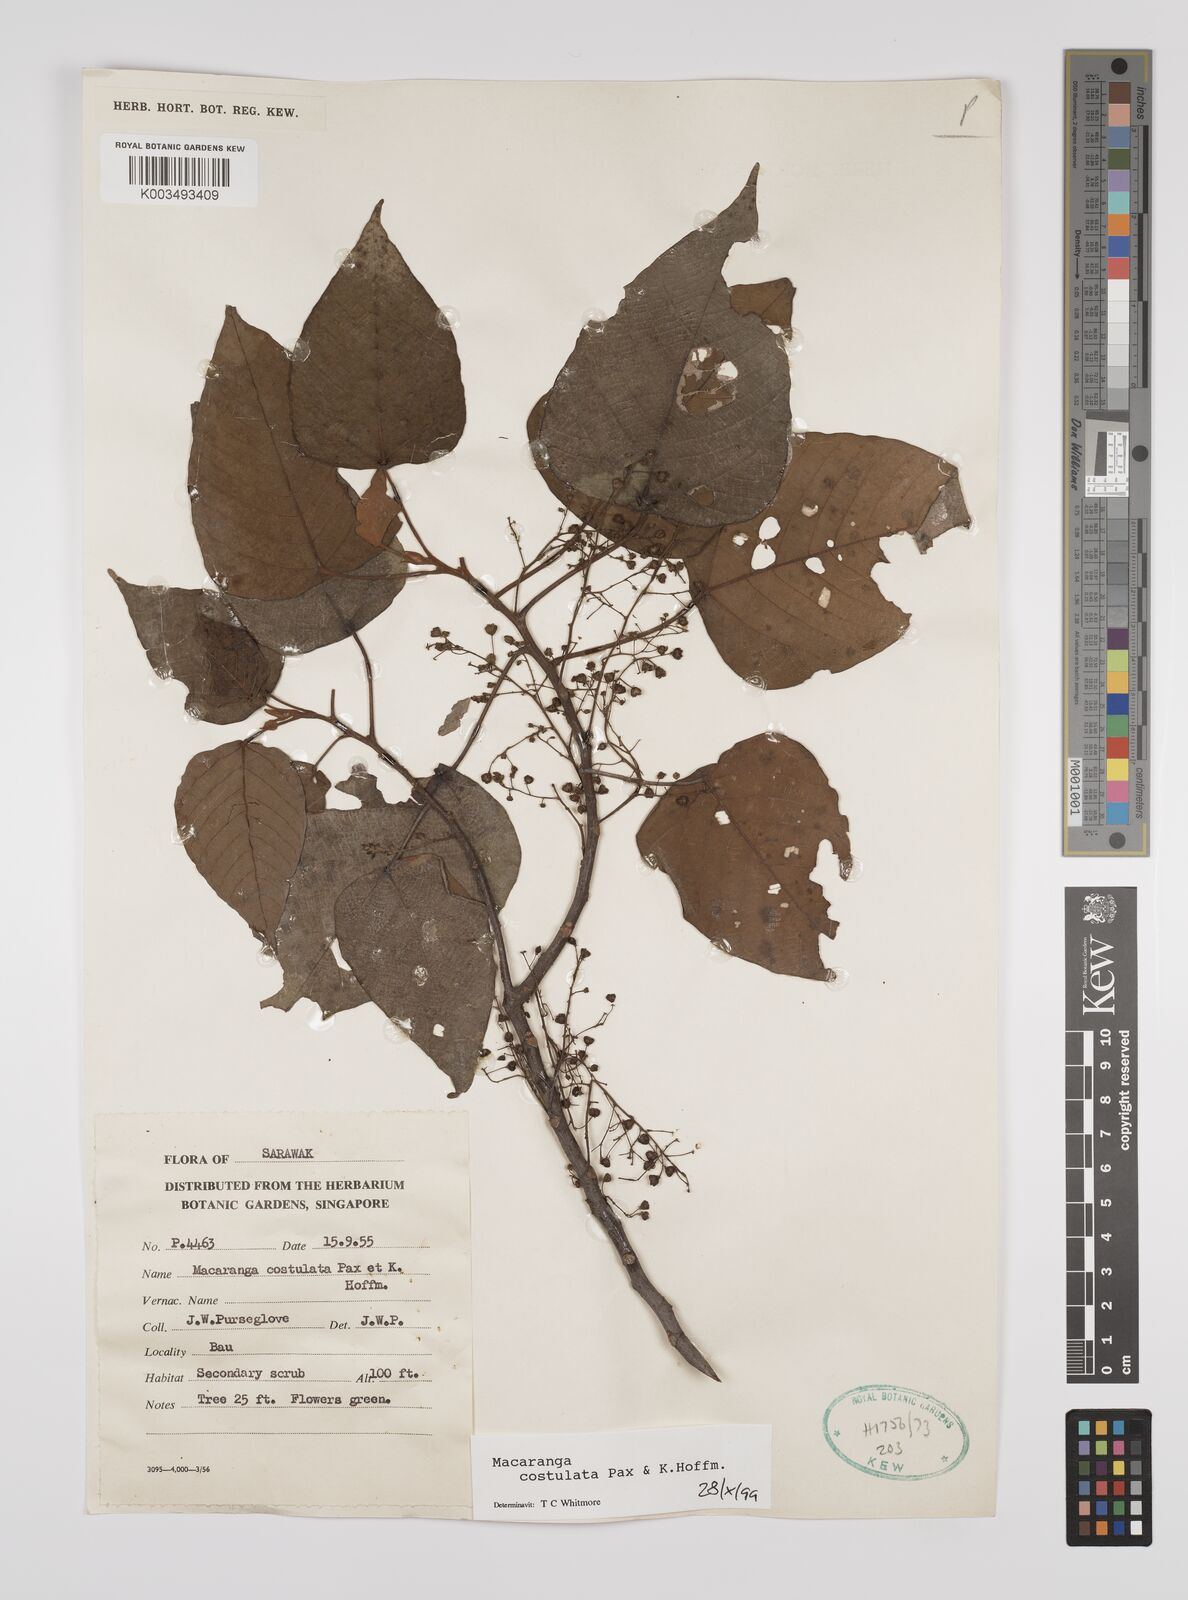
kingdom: Plantae
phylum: Tracheophyta
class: Magnoliopsida
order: Malpighiales
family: Euphorbiaceae
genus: Macaranga
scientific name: Macaranga costulata
